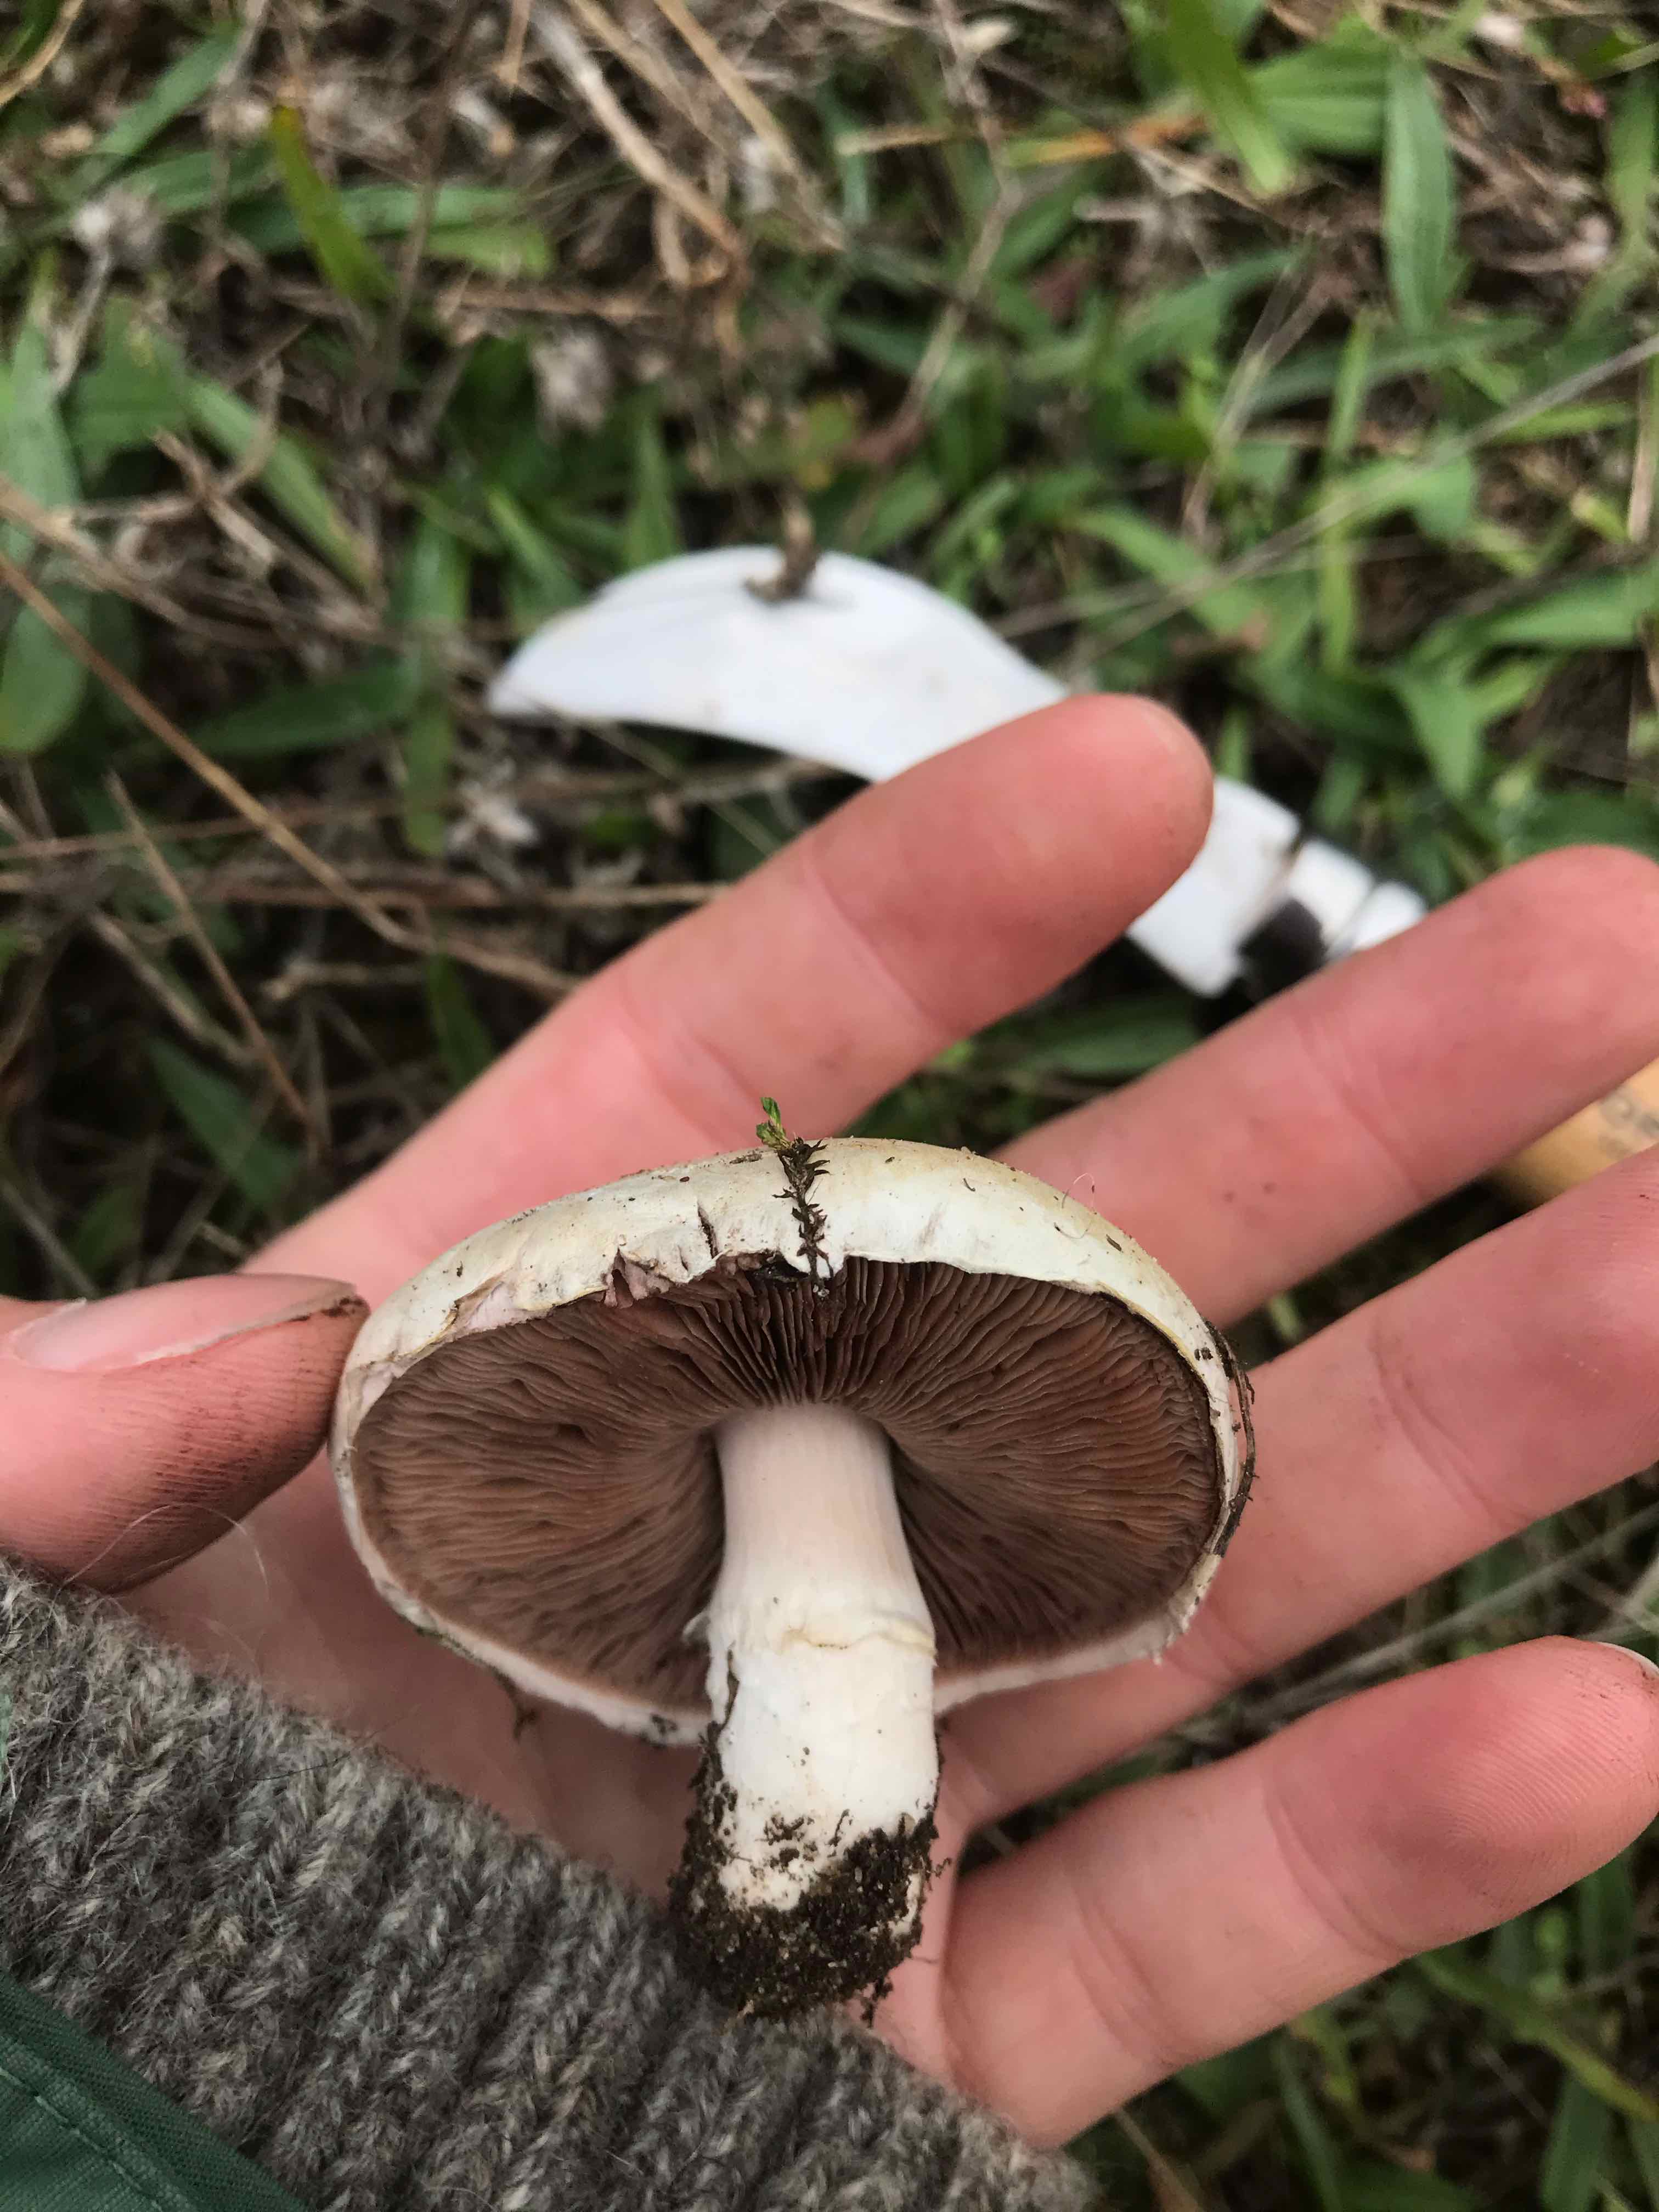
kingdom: Fungi
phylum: Basidiomycota
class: Agaricomycetes
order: Agaricales
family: Agaricaceae
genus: Agaricus
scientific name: Agaricus campestris
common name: mark-champignon
